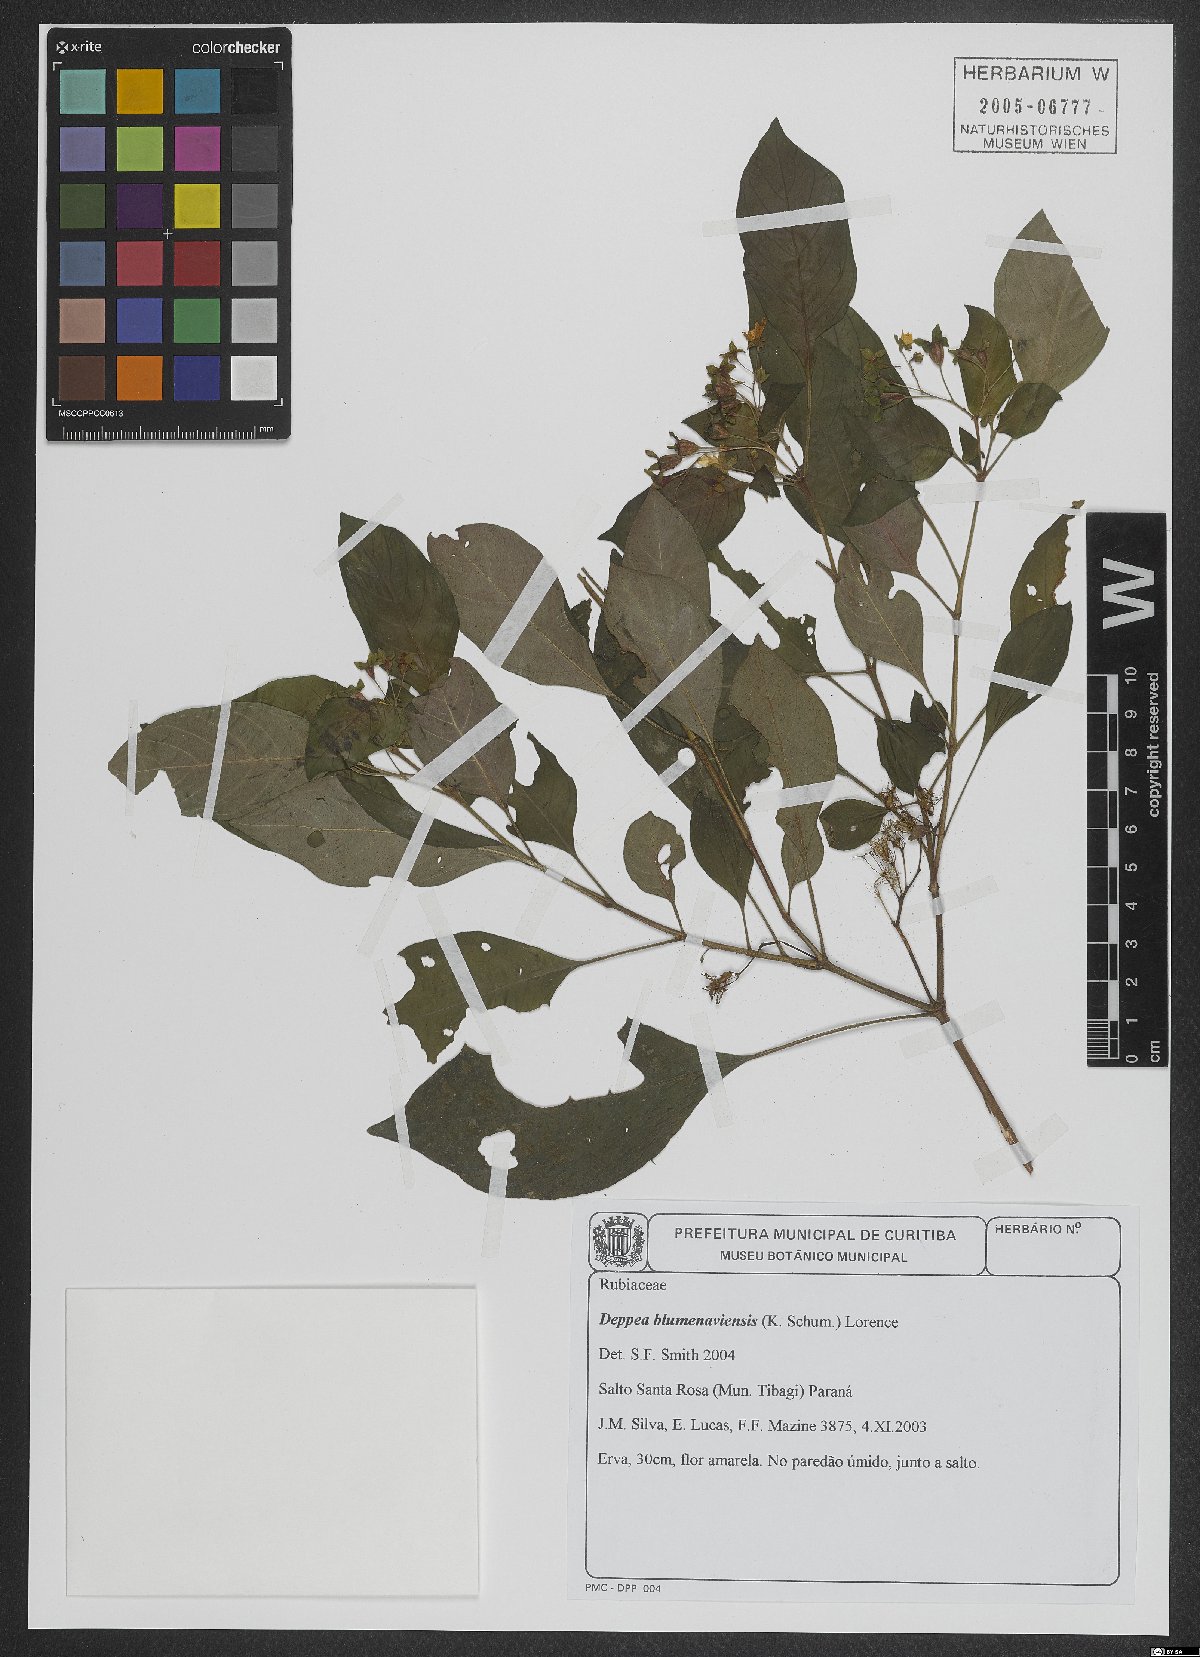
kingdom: Plantae
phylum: Tracheophyta
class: Magnoliopsida
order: Gentianales
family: Rubiaceae
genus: Deppea
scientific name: Deppea blumenaviensis
